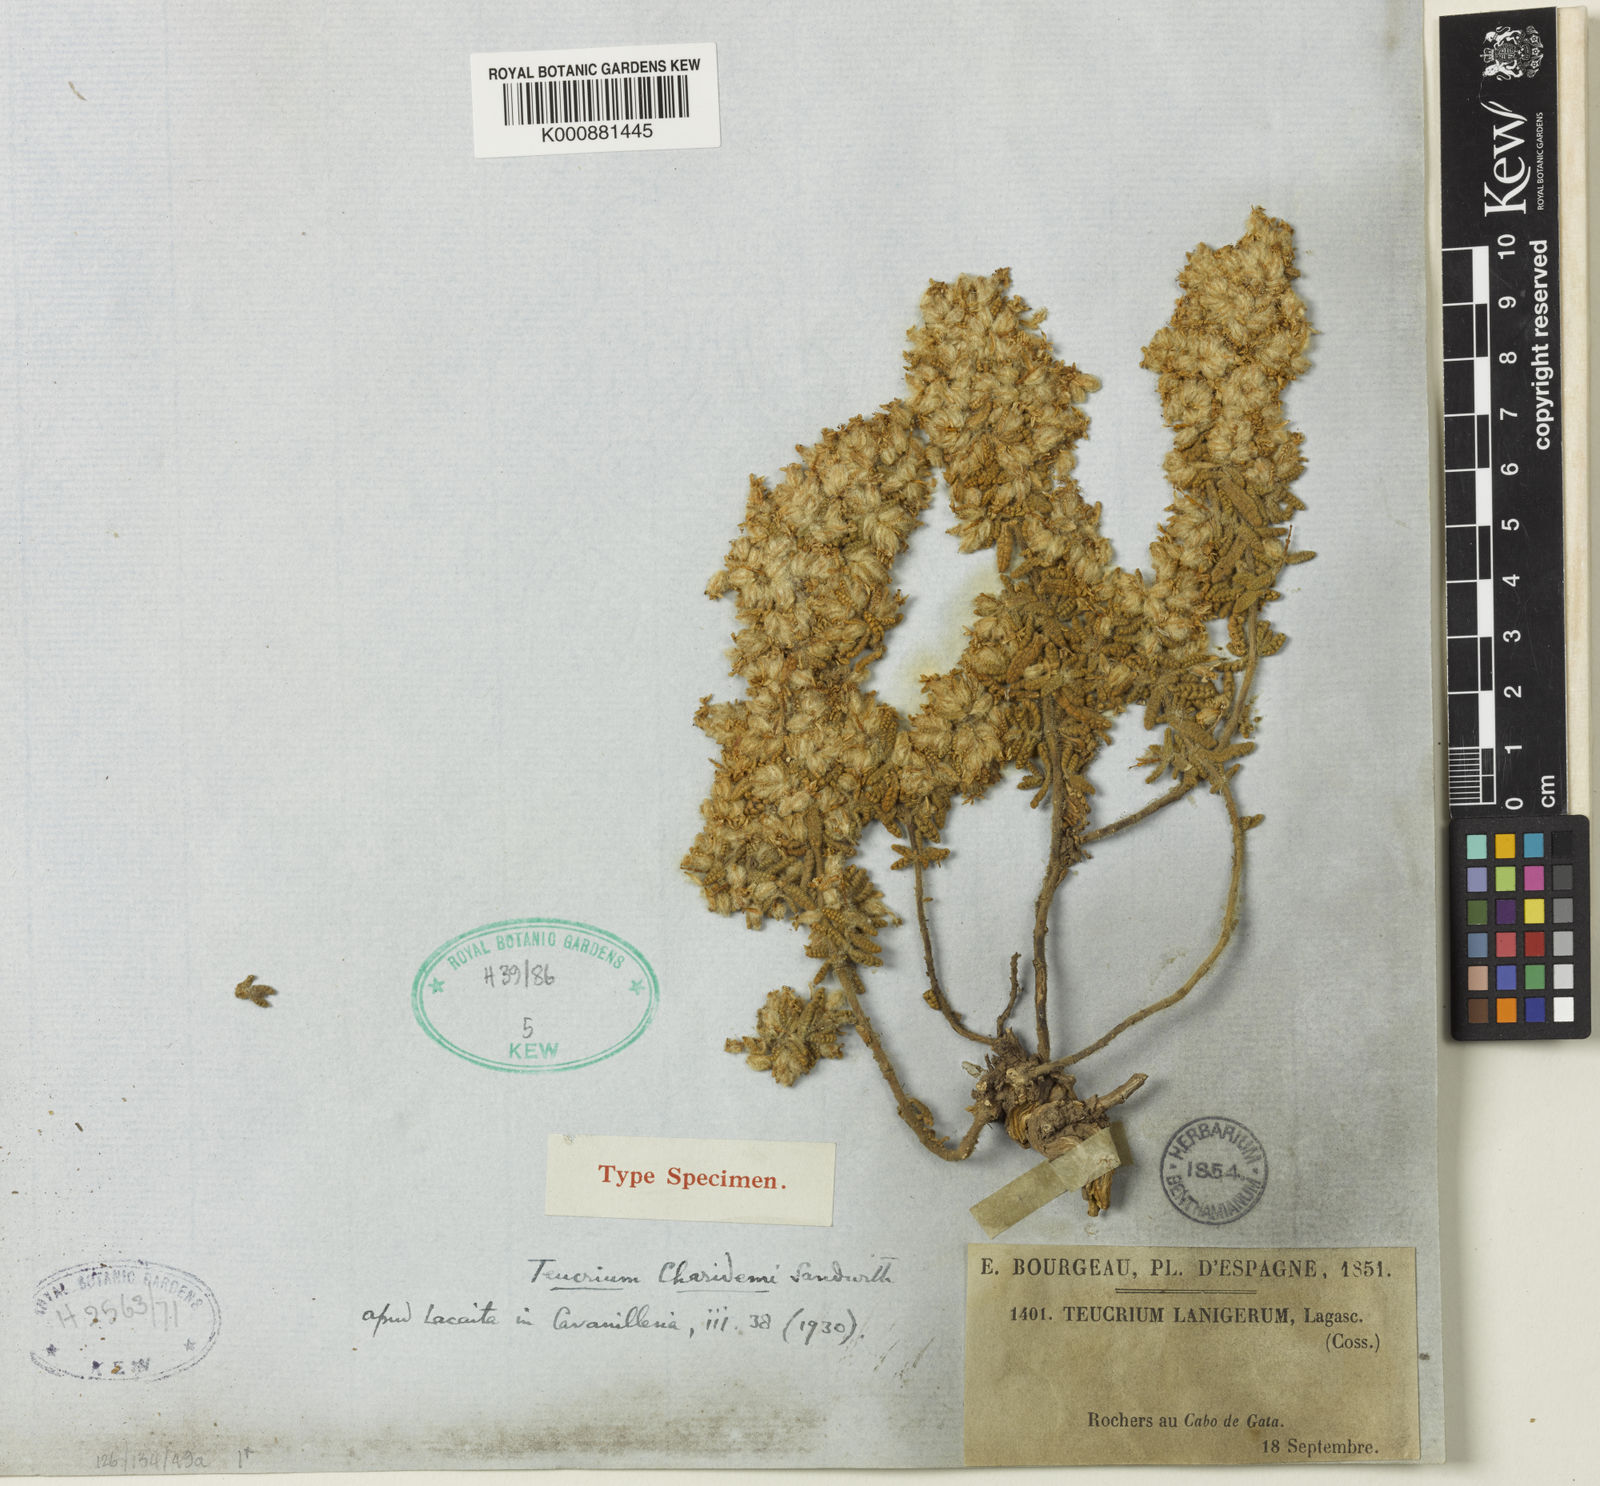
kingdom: Plantae
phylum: Tracheophyta
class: Magnoliopsida
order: Lamiales
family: Lamiaceae
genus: Teucrium
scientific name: Teucrium charidemi
